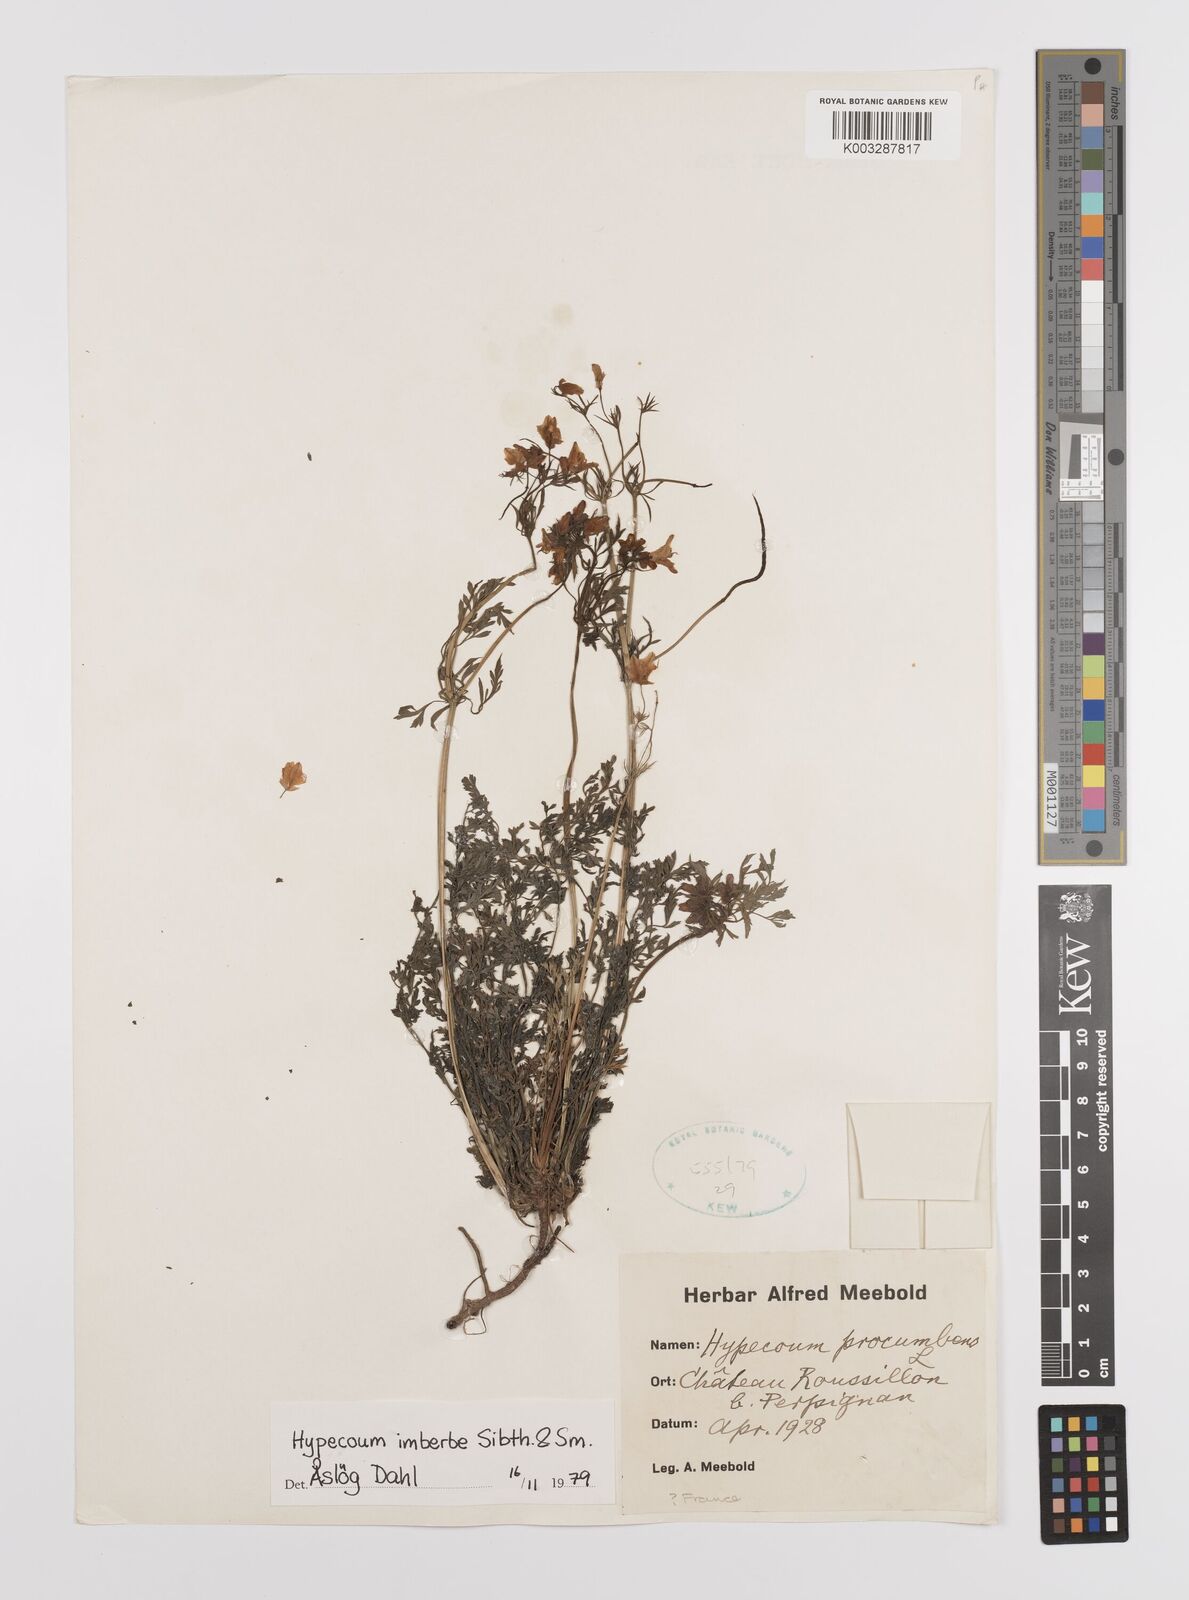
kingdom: Plantae
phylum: Tracheophyta
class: Magnoliopsida
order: Ranunculales
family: Papaveraceae
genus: Hypecoum
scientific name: Hypecoum imberbe
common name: Sicklefruit hypecoum
